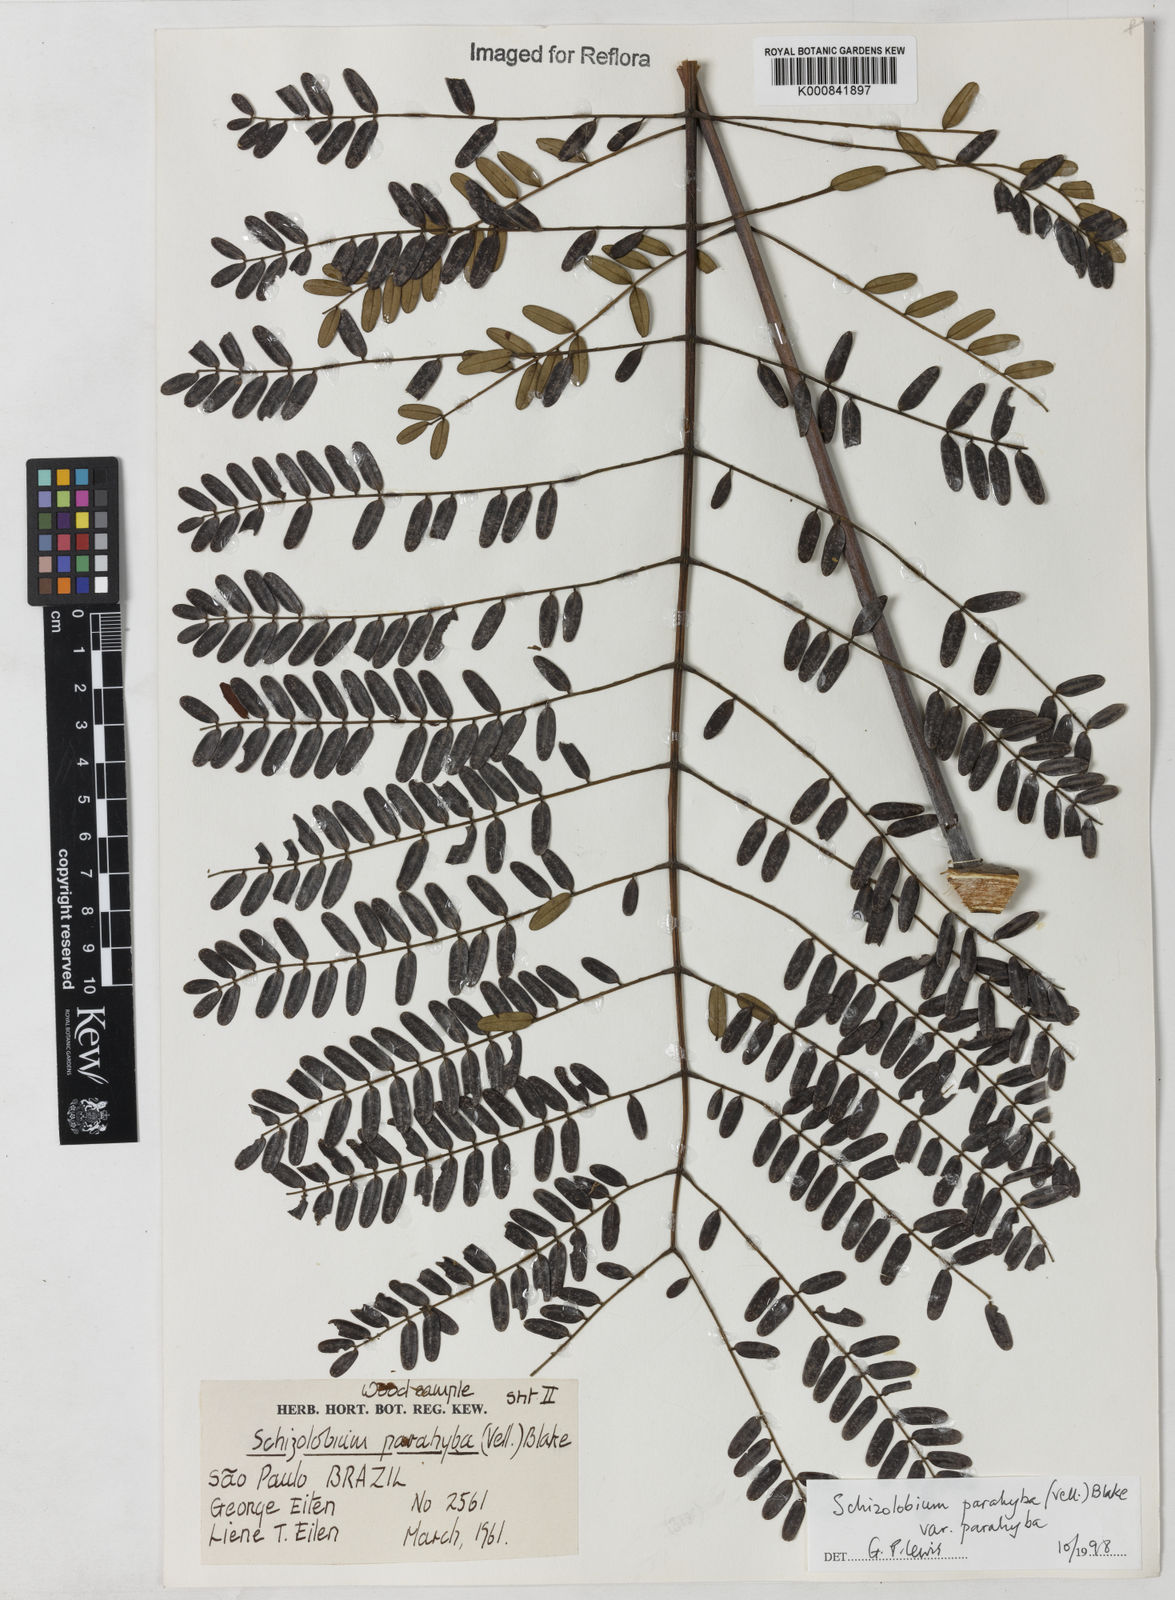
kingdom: Plantae
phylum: Tracheophyta
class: Magnoliopsida
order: Fabales
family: Fabaceae
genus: Schizolobium
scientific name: Schizolobium parahyba
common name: Brazilian firetree
